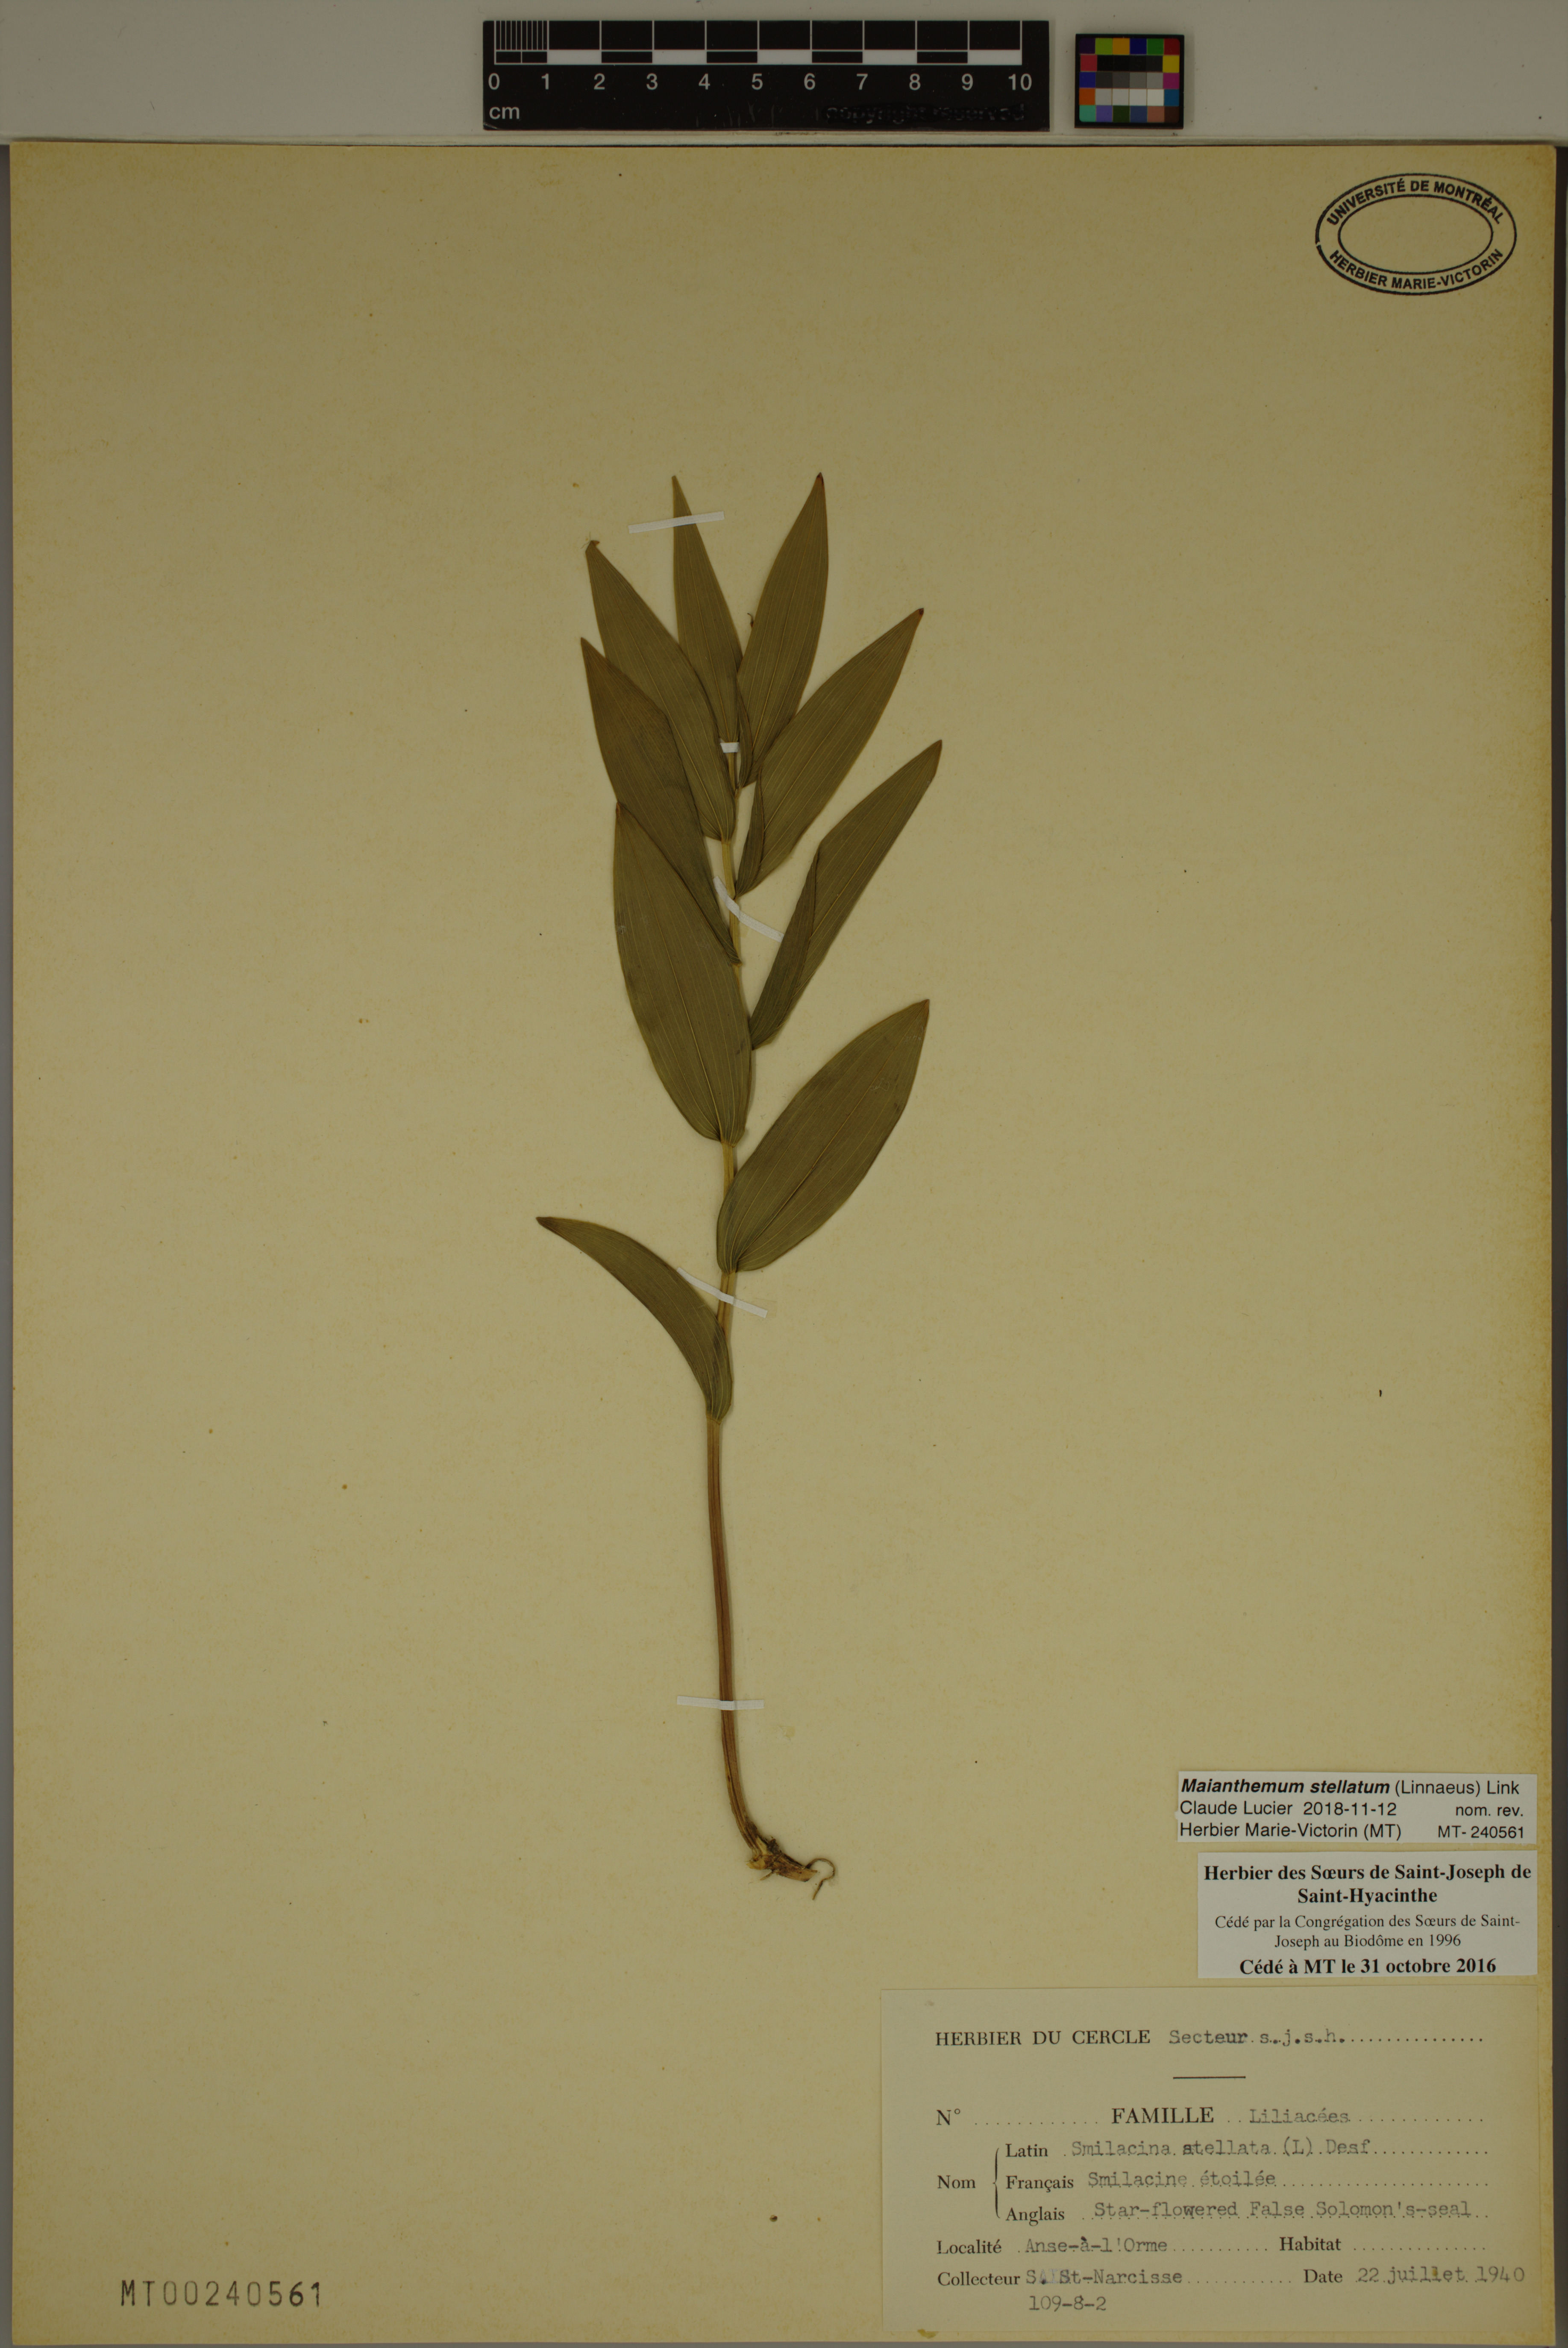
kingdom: Plantae
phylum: Tracheophyta
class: Liliopsida
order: Asparagales
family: Asparagaceae
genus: Maianthemum
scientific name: Maianthemum stellatum
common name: Little false solomon's seal
